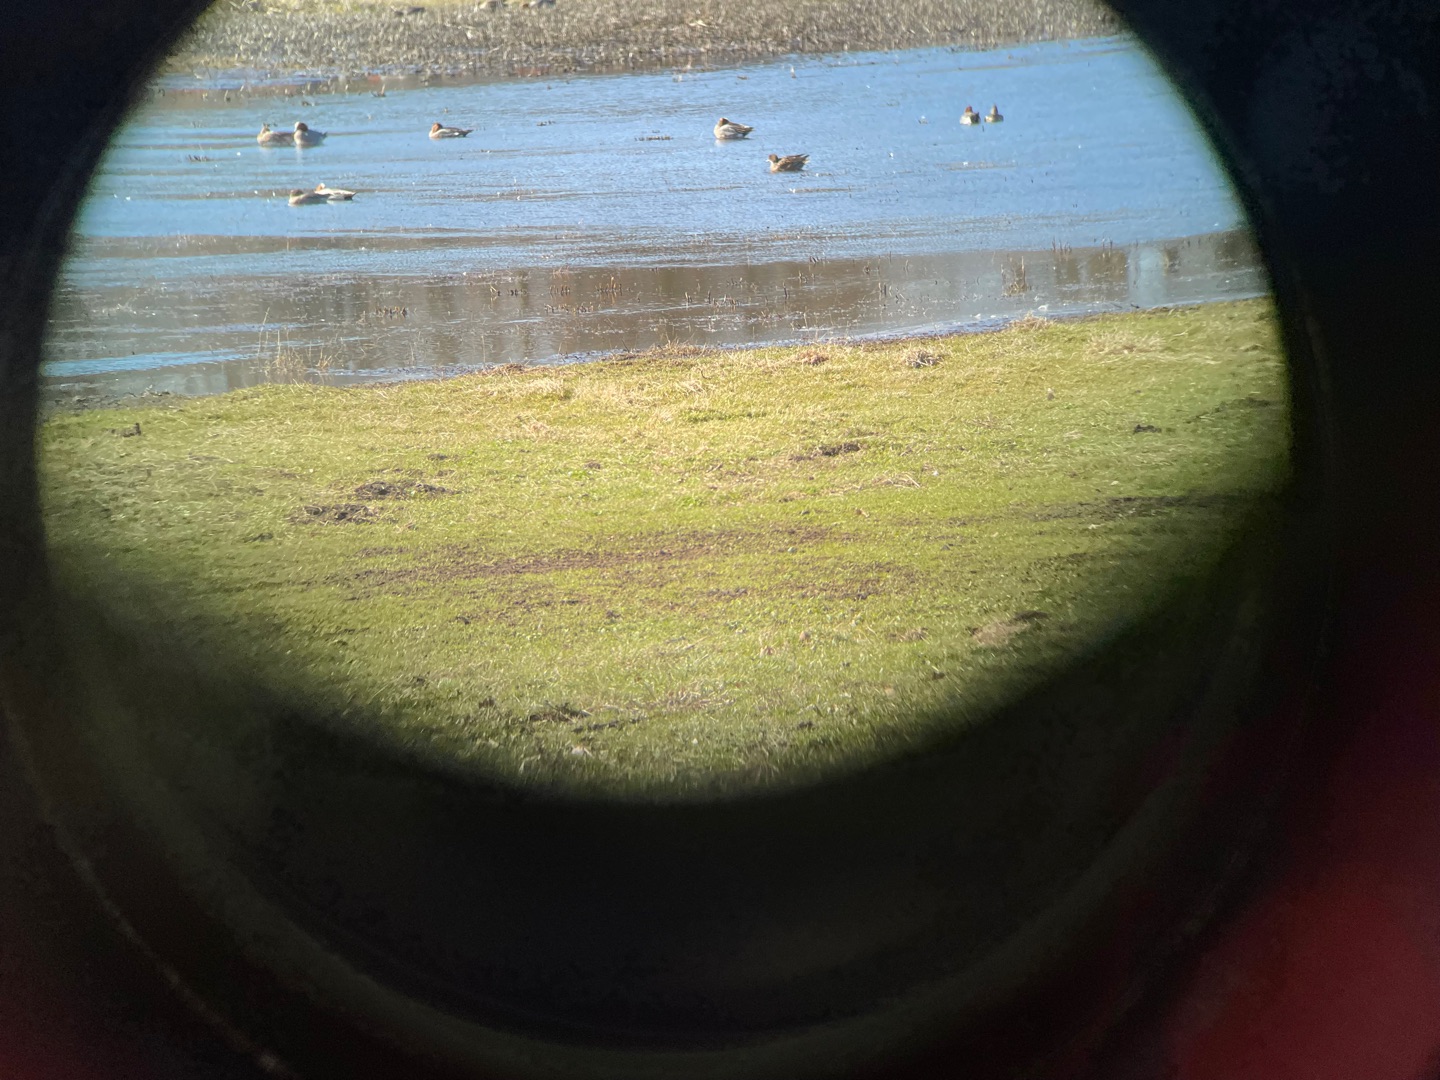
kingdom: Animalia
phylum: Chordata
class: Aves
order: Anseriformes
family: Anatidae
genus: Mareca
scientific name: Mareca penelope
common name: Pibeand
